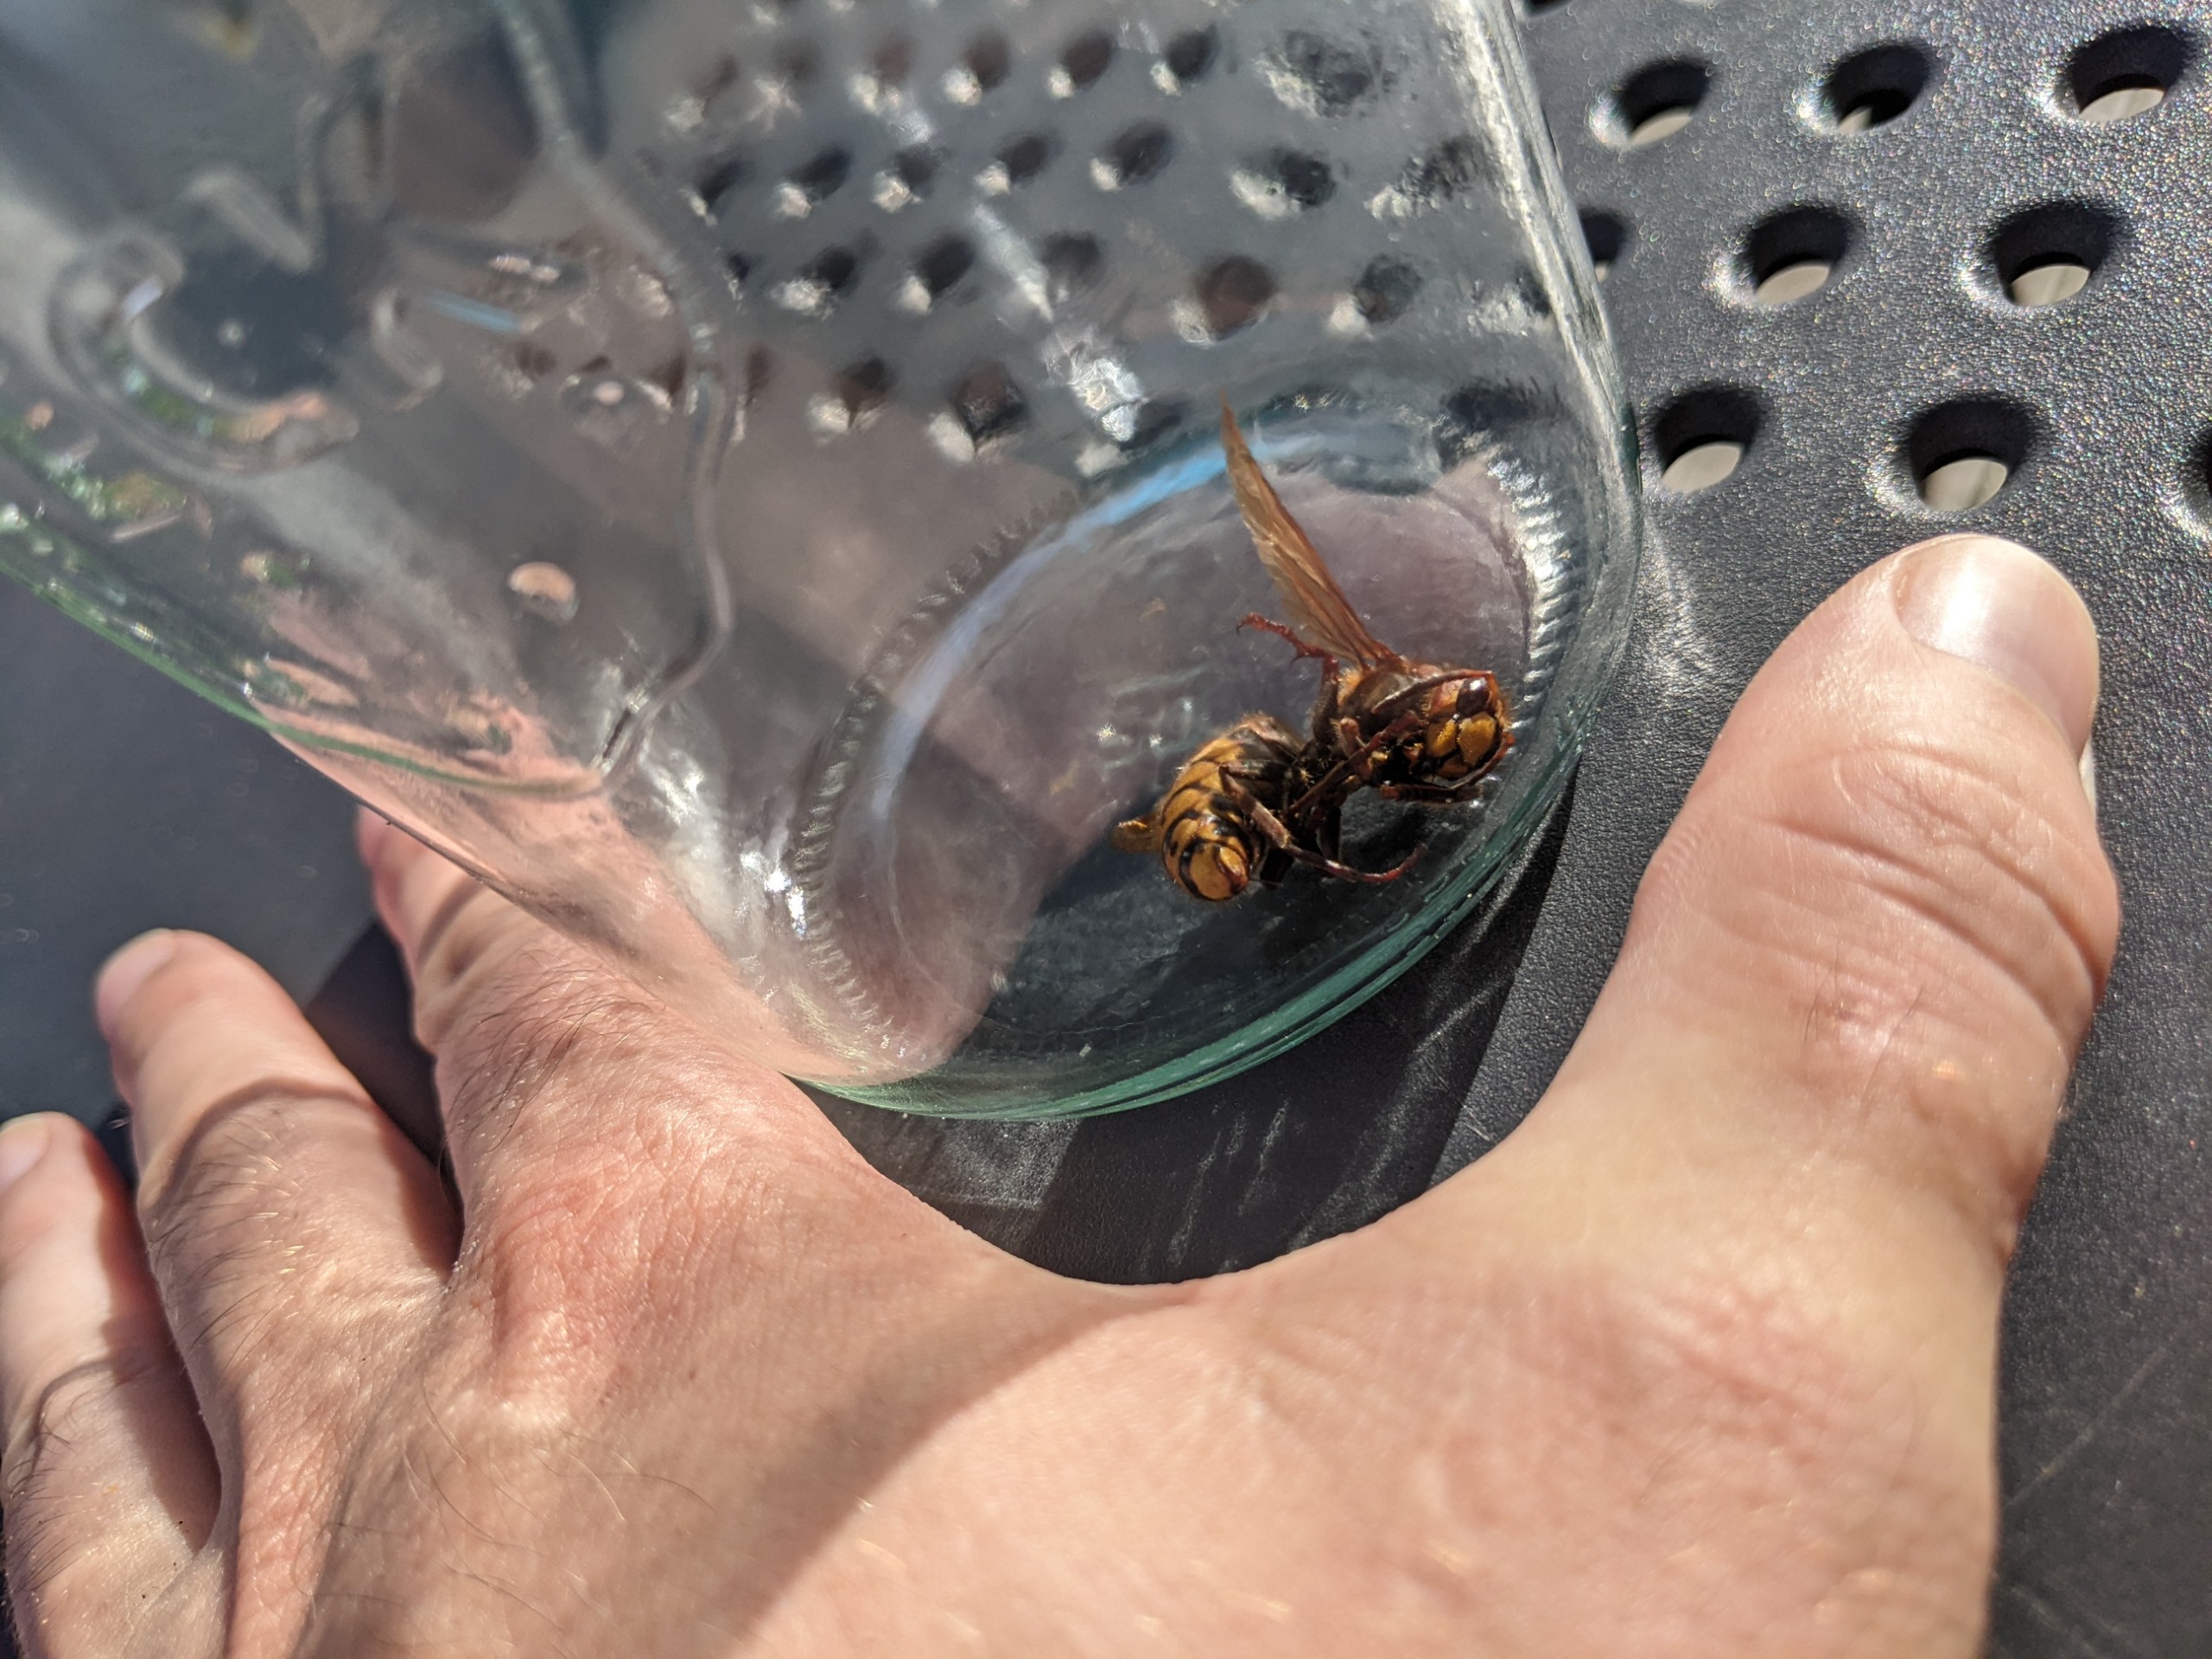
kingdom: Animalia
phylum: Arthropoda
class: Insecta
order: Hymenoptera
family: Vespidae
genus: Vespa
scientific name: Vespa crabro
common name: Stor gedehams
